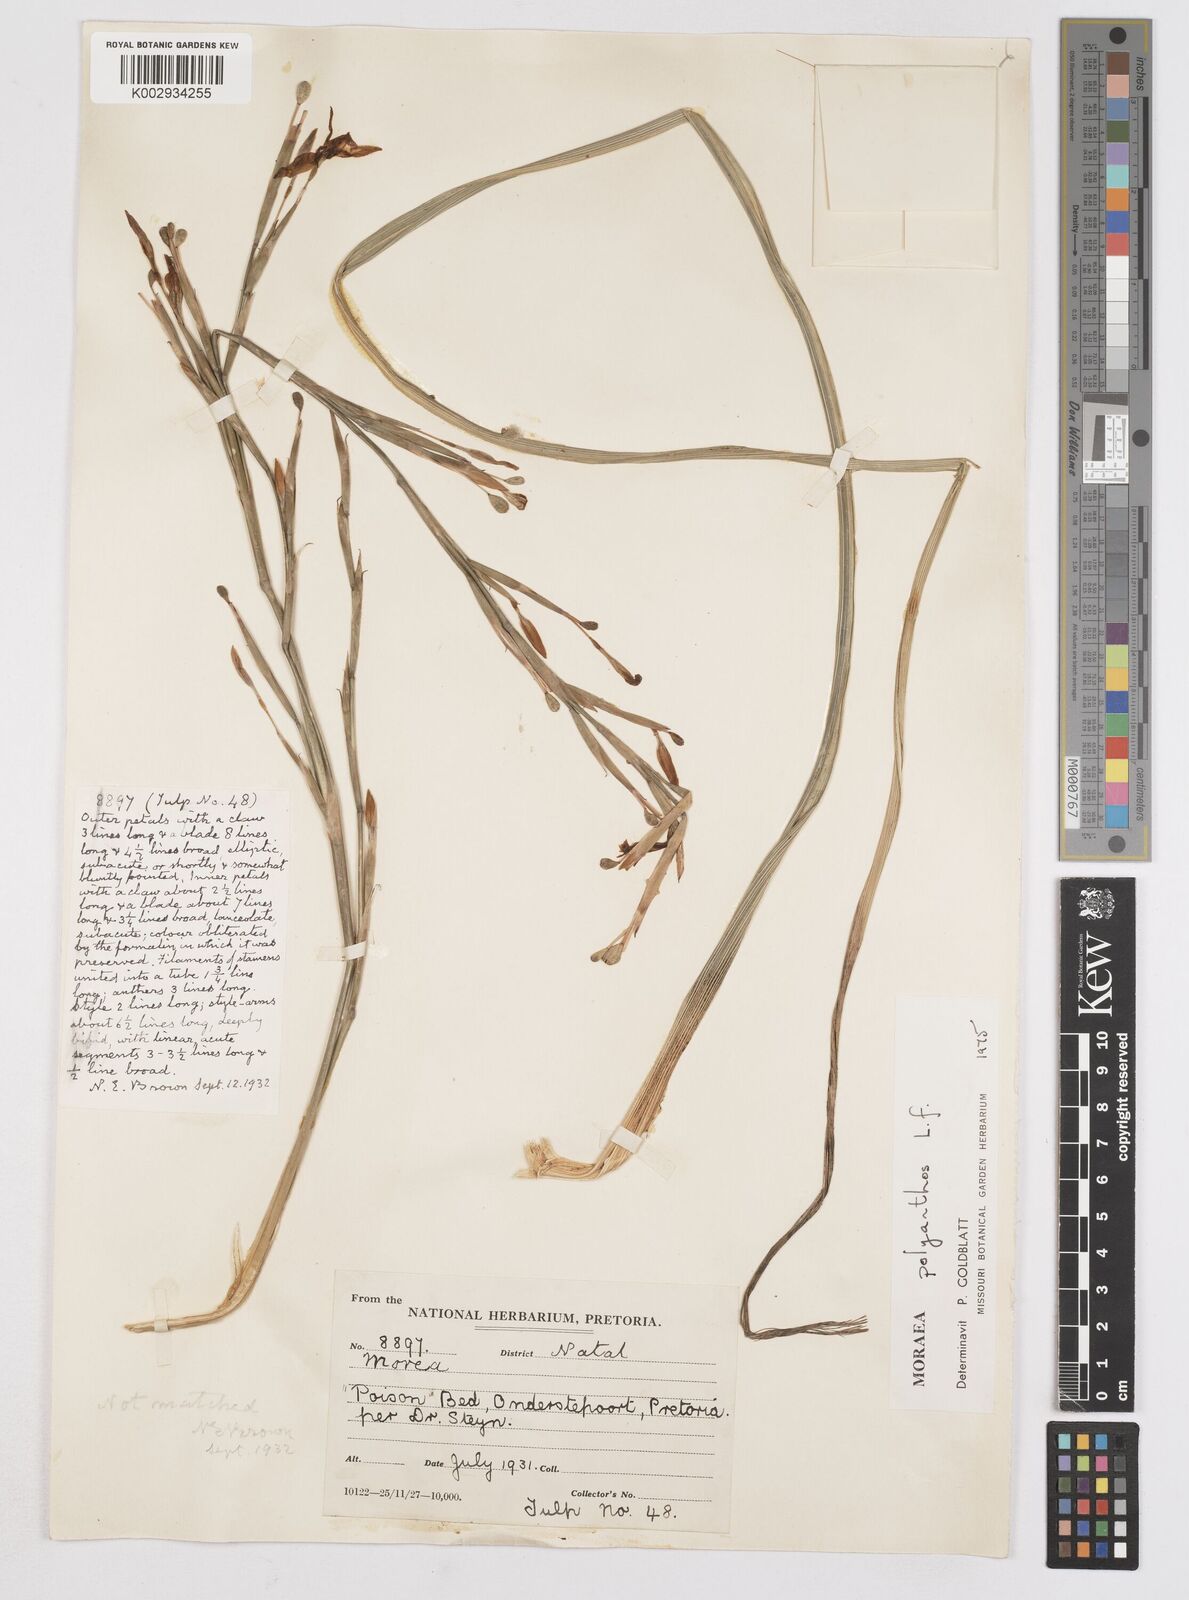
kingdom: Plantae
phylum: Tracheophyta
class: Liliopsida
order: Asparagales
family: Iridaceae
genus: Moraea
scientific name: Moraea bipartita
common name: Blue tulp
